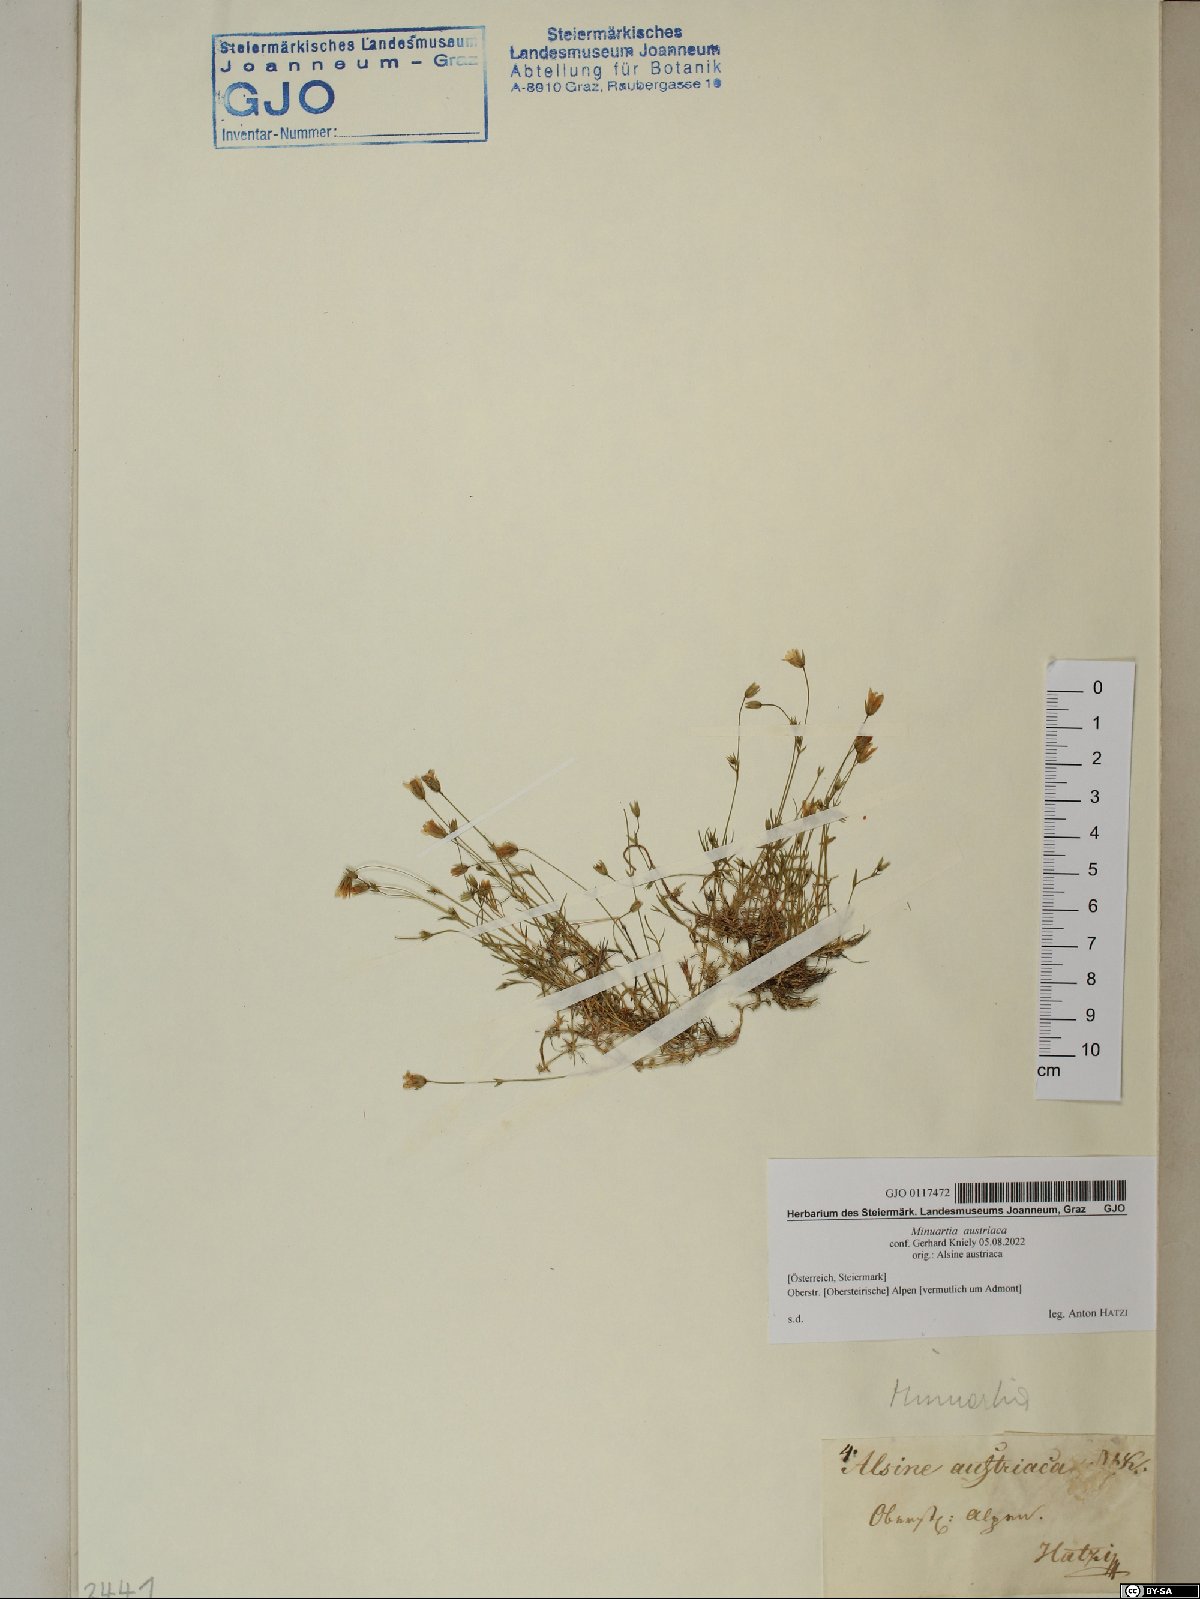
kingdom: Plantae
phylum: Tracheophyta
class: Magnoliopsida
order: Caryophyllales
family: Caryophyllaceae
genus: Sabulina
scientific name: Sabulina austriaca
